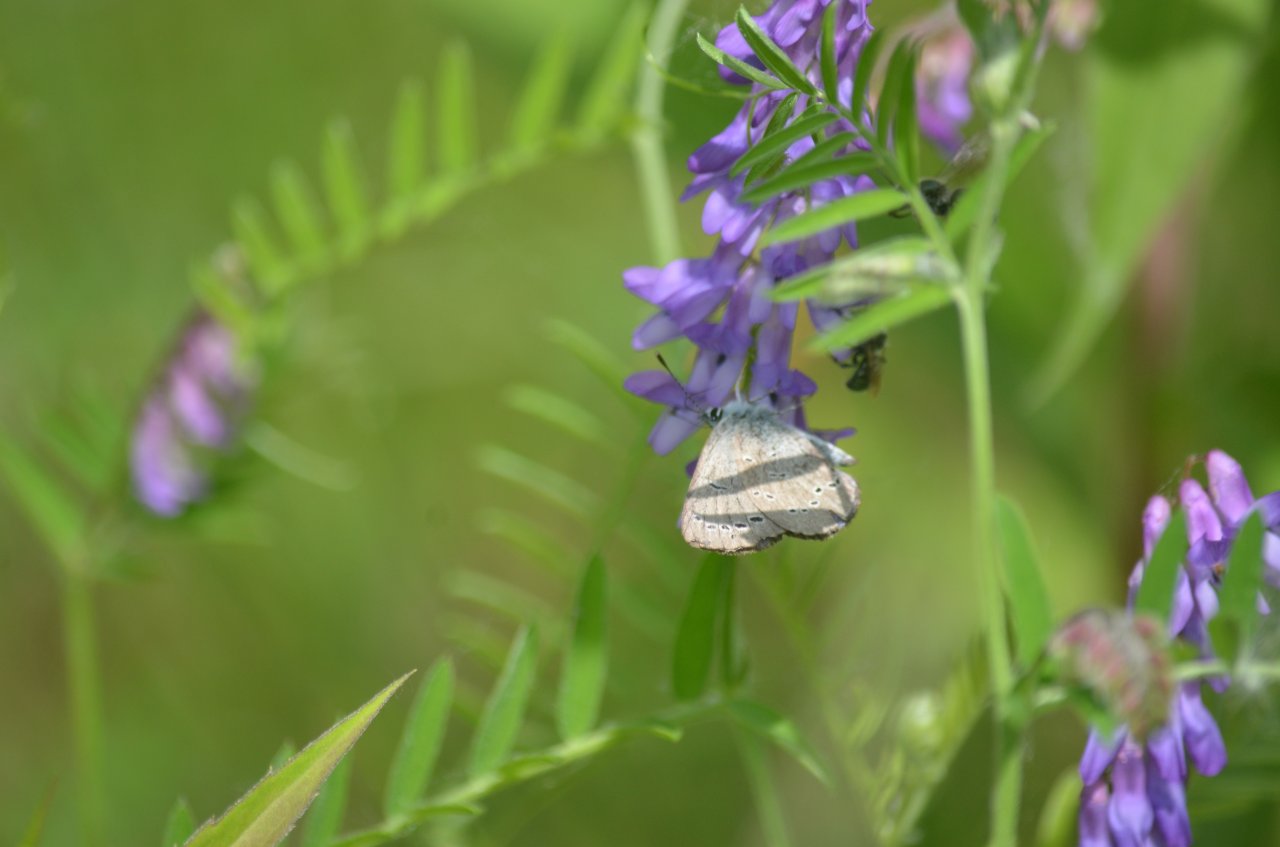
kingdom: Animalia
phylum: Arthropoda
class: Insecta
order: Lepidoptera
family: Lycaenidae
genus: Glaucopsyche
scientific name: Glaucopsyche lygdamus
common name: Silvery Blue
